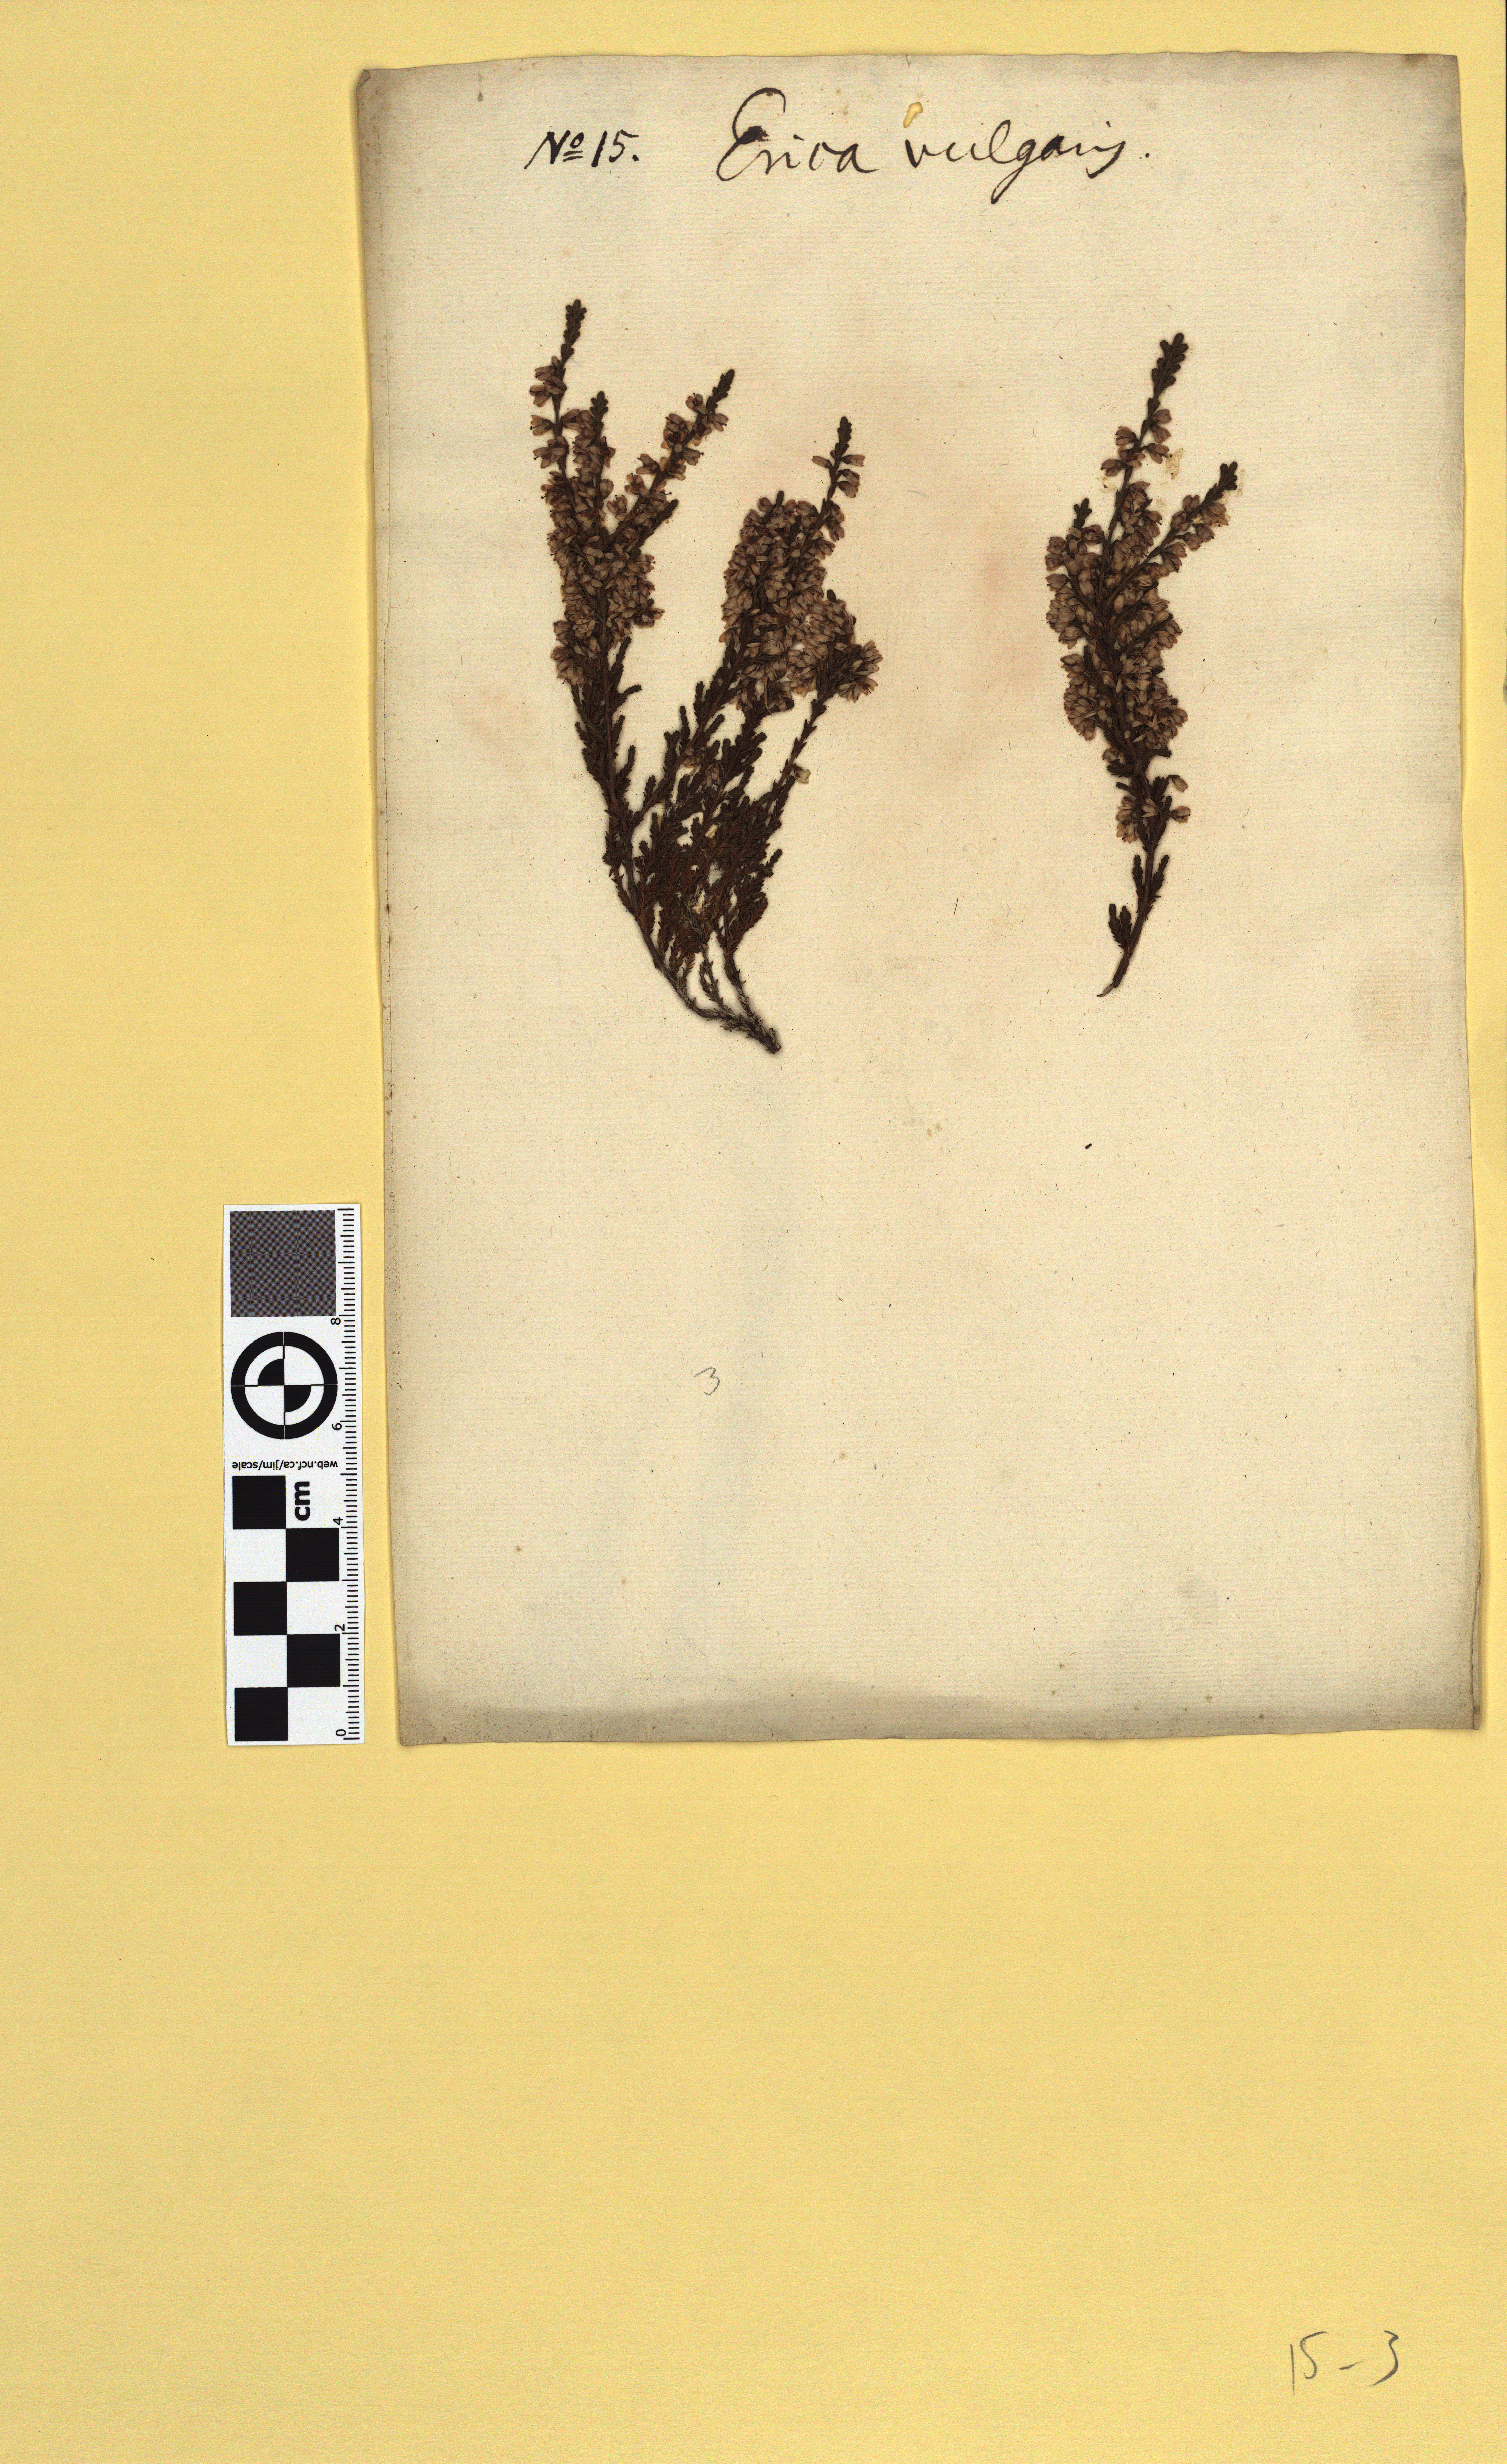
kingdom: Plantae
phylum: Tracheophyta
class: Magnoliopsida
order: Ericales
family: Ericaceae
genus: Calluna
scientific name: Calluna vulgaris
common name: Heather
